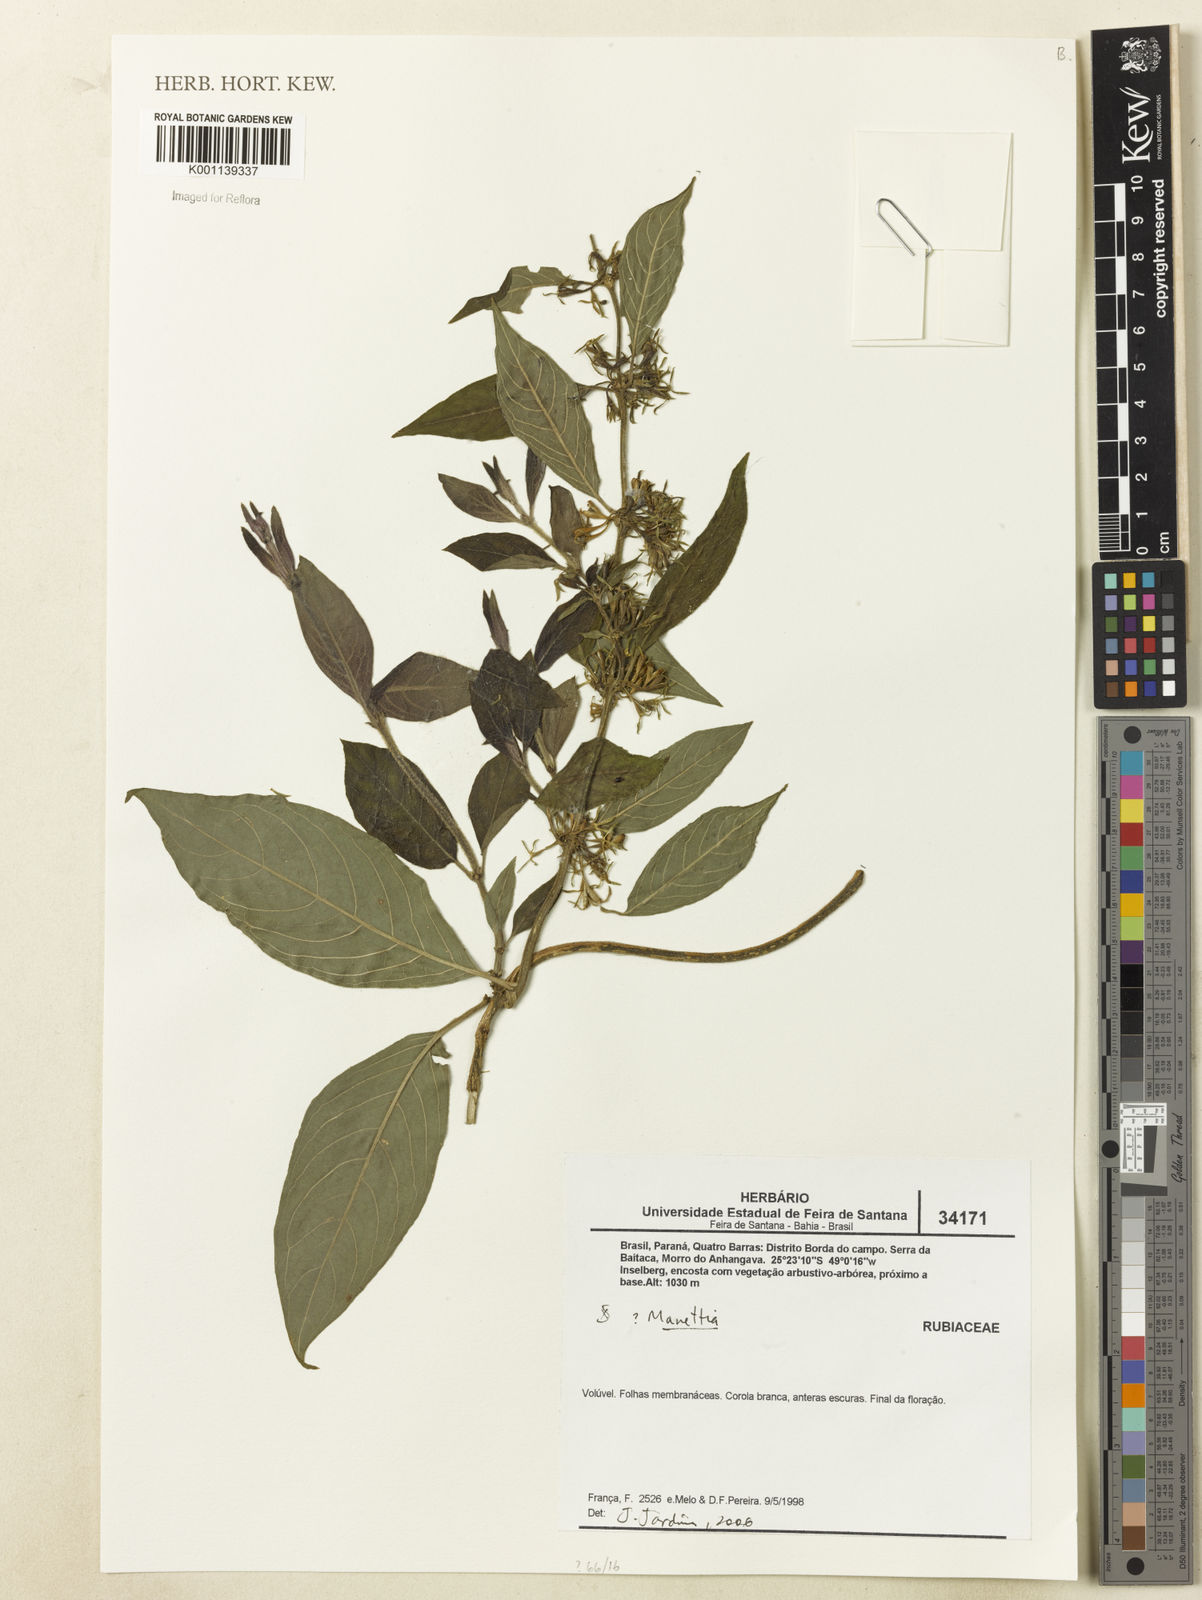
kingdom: Plantae
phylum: Tracheophyta
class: Magnoliopsida
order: Gentianales
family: Rubiaceae
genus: Manettia
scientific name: Manettia
